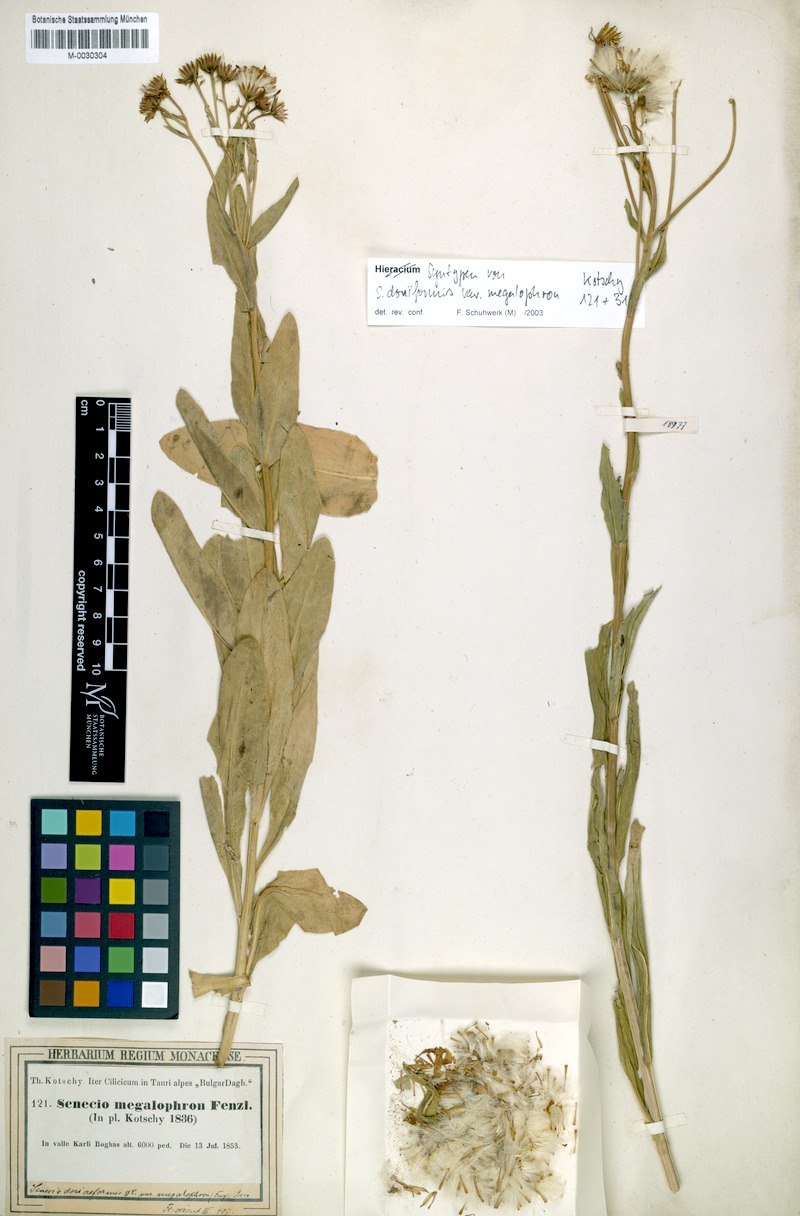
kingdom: Plantae
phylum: Tracheophyta
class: Magnoliopsida
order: Asterales
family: Asteraceae
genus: Senecio
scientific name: Senecio doriiformis
